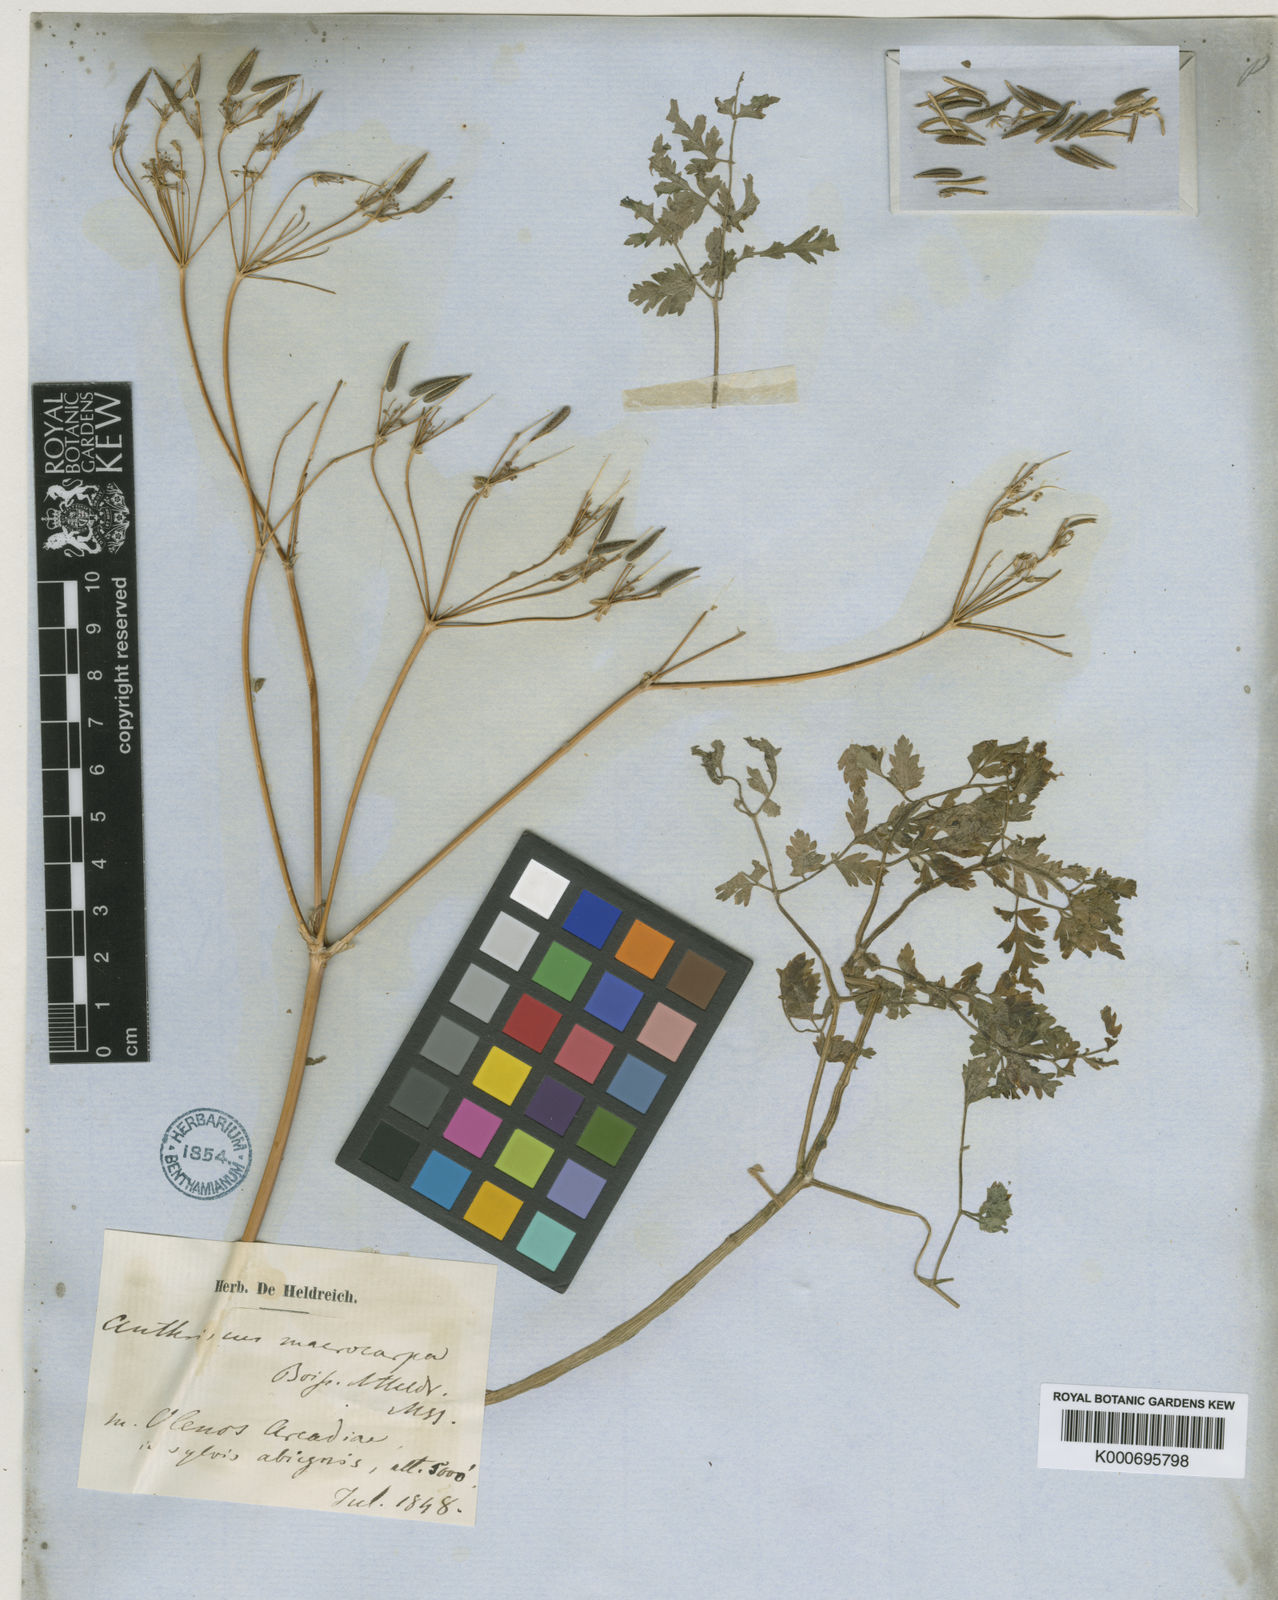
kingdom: Plantae
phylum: Tracheophyta
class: Magnoliopsida
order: Apiales
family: Apiaceae
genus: Anthriscus
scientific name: Anthriscus kotschyi
